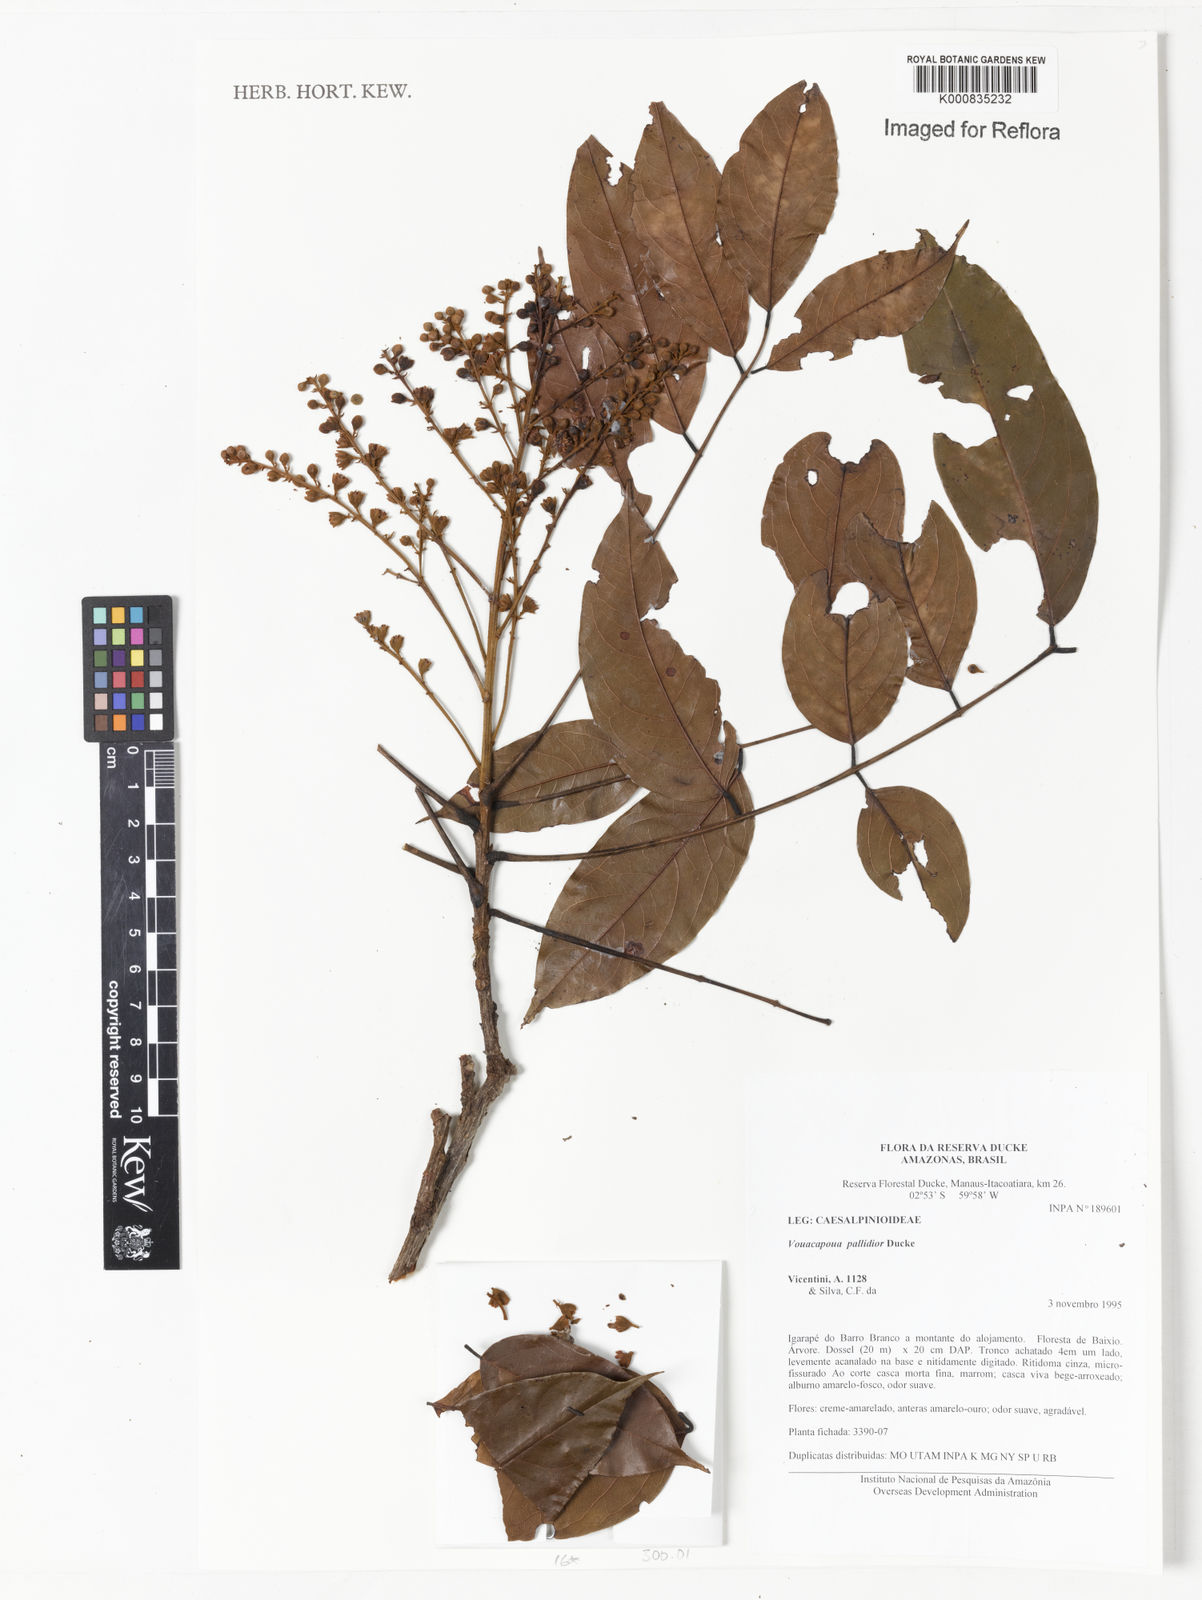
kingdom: Plantae
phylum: Tracheophyta
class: Magnoliopsida
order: Fabales
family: Fabaceae
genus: Vouacapoua
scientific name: Vouacapoua pallidior
